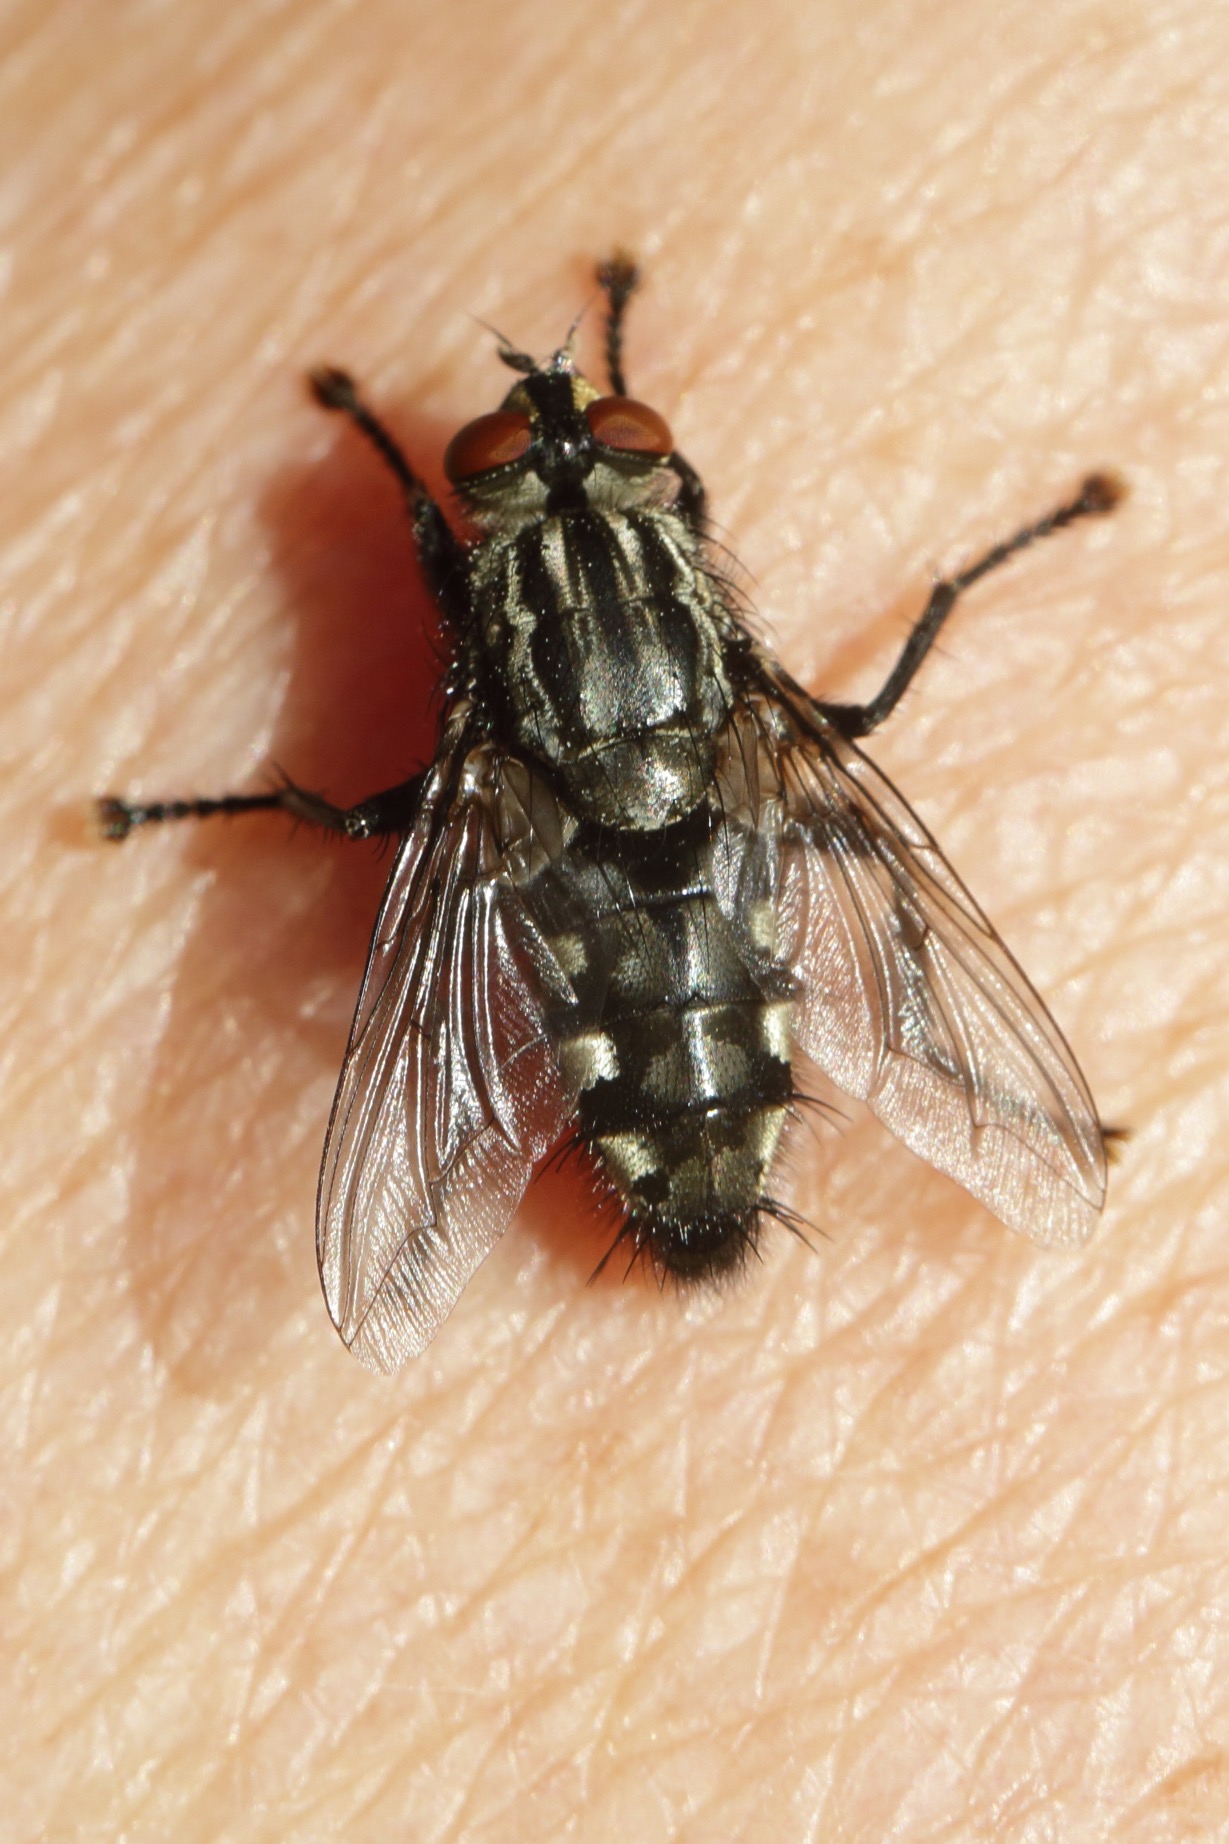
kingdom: Animalia
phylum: Arthropoda
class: Insecta
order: Diptera
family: Sarcophagidae
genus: Sarcophaga
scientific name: Sarcophaga
